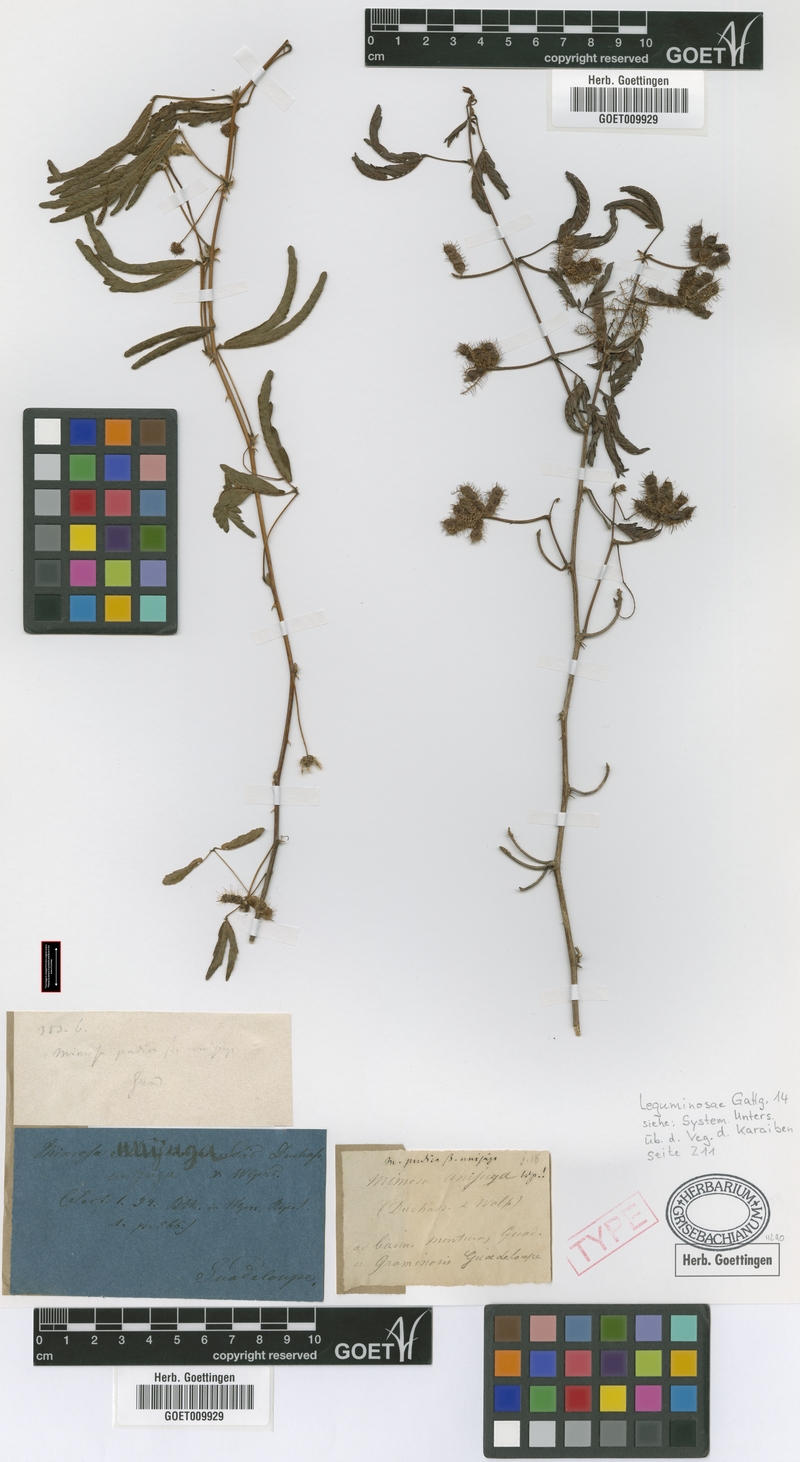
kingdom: Plantae
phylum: Tracheophyta
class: Magnoliopsida
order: Fabales
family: Fabaceae
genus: Mimosa
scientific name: Mimosa pudica
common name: Sensitive plant
